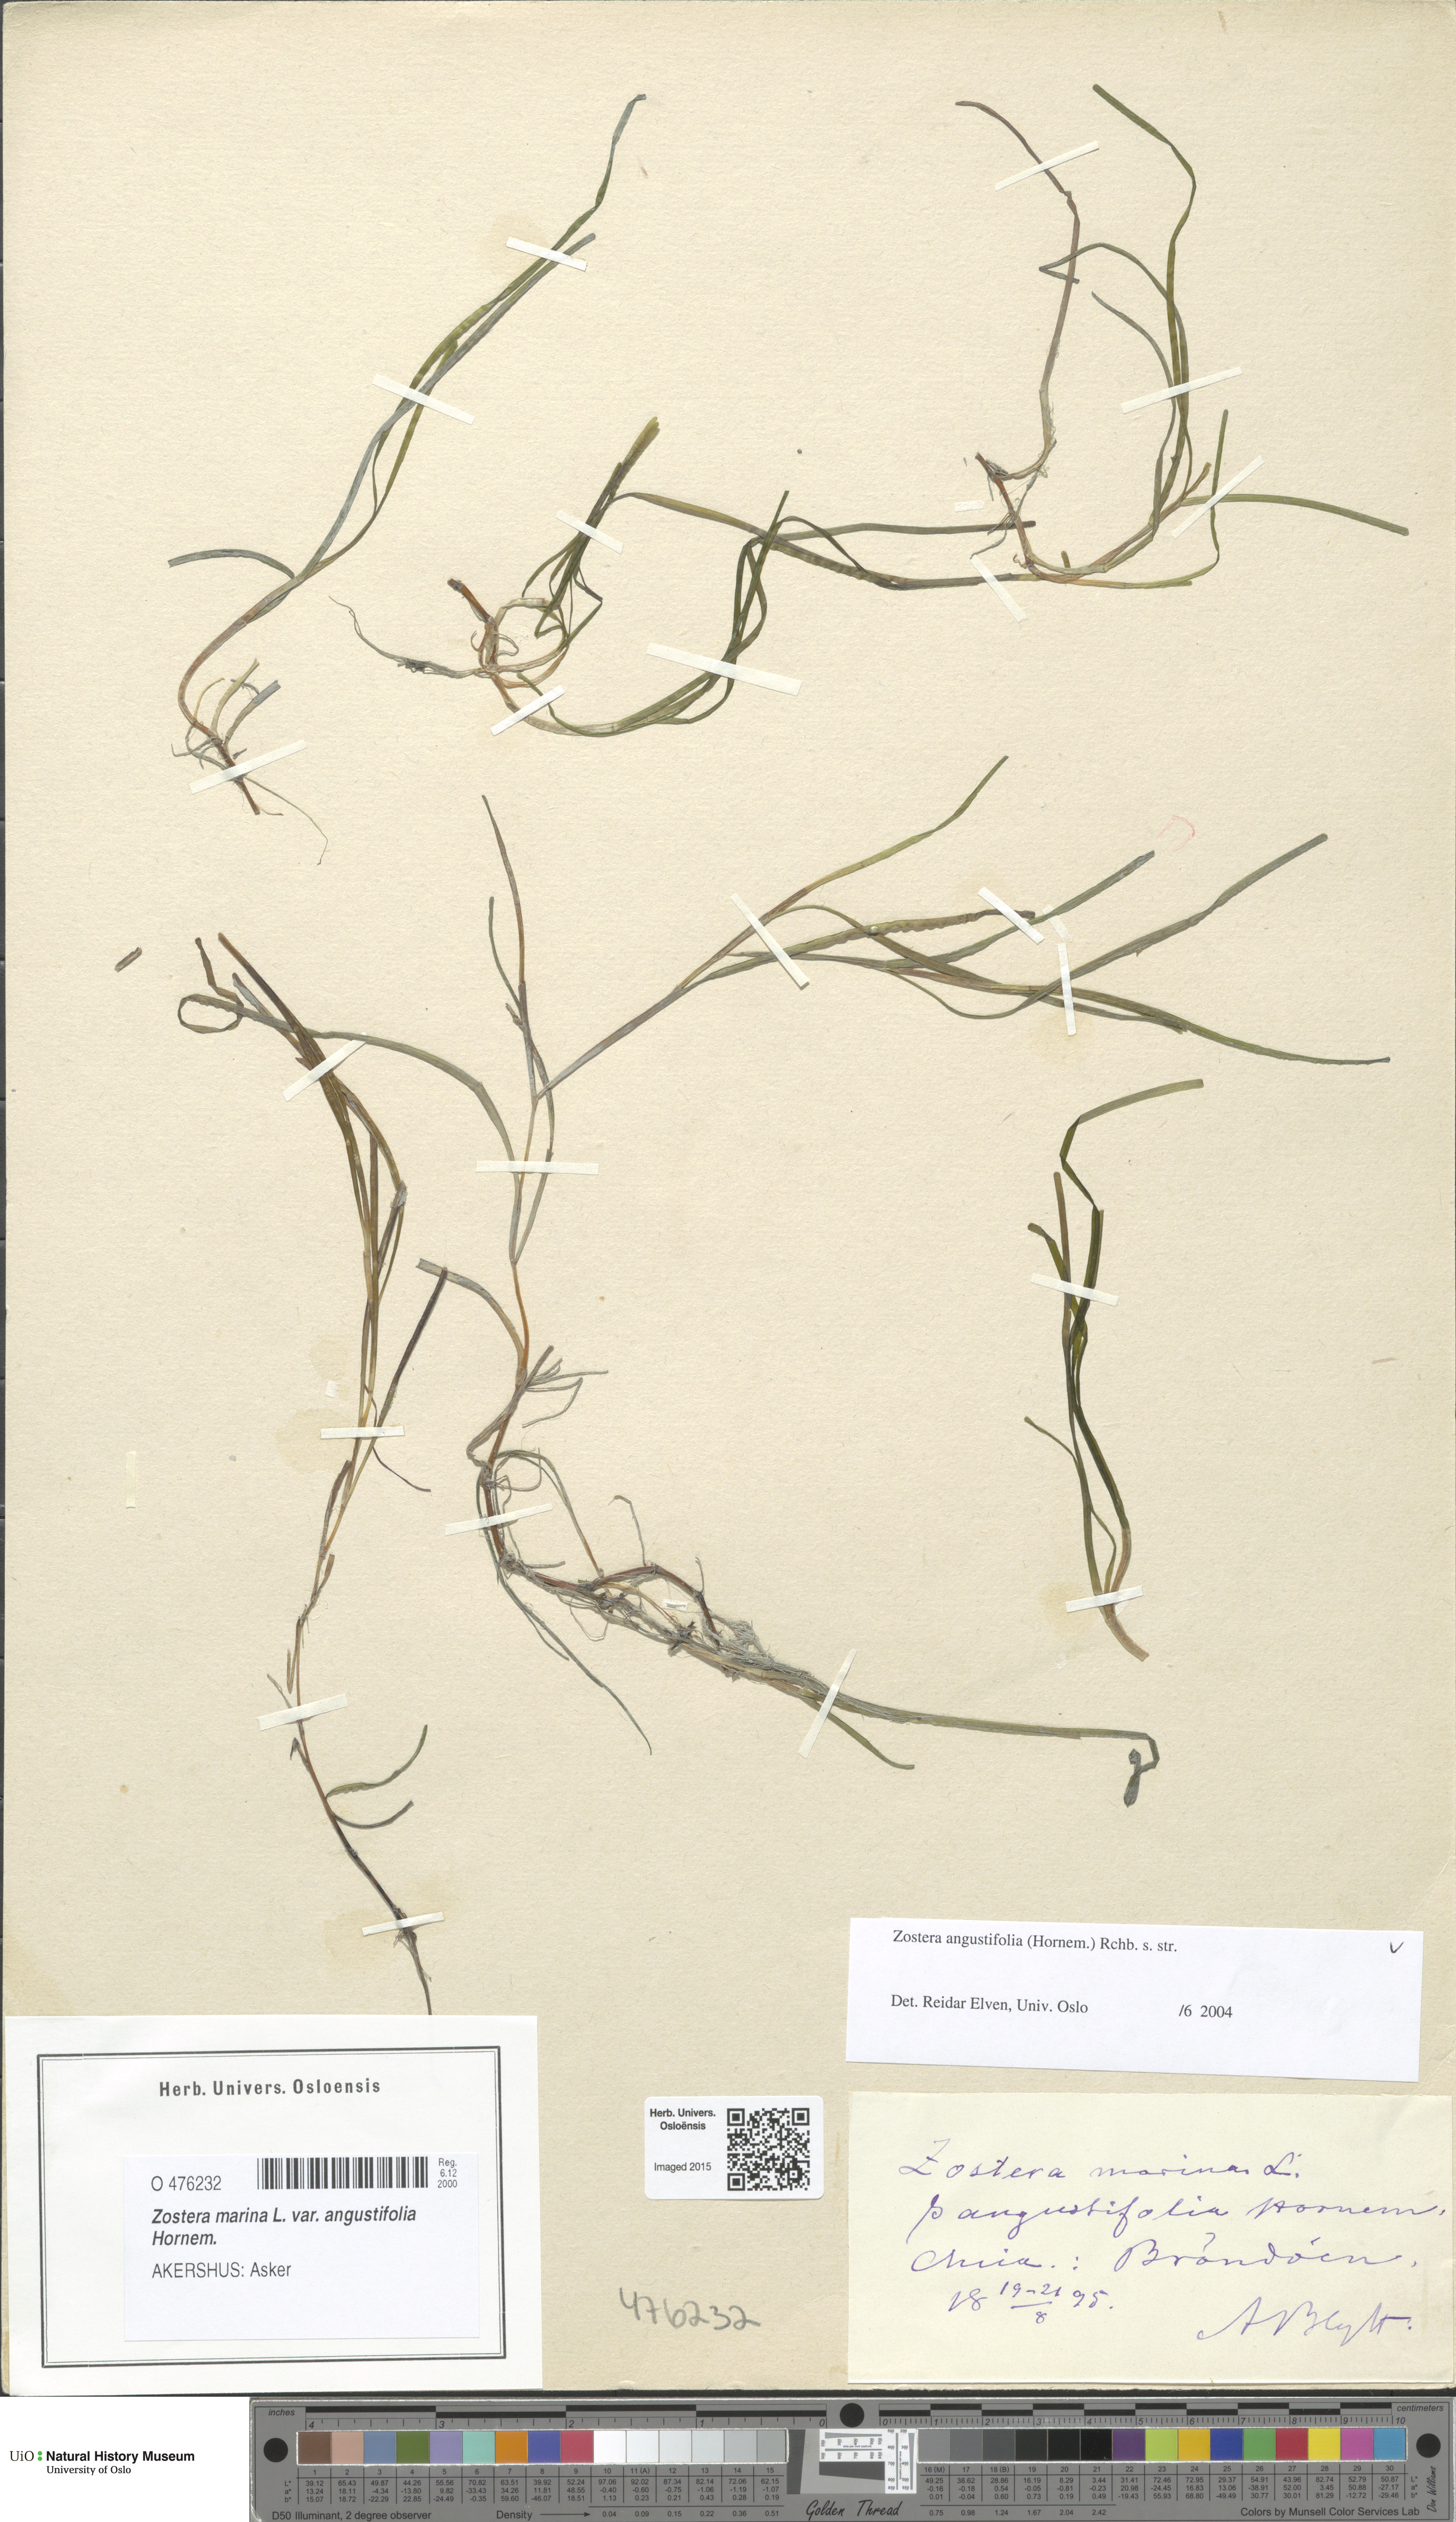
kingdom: Plantae
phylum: Tracheophyta
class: Liliopsida
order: Alismatales
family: Zosteraceae
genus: Zostera
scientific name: Zostera angustifolia
